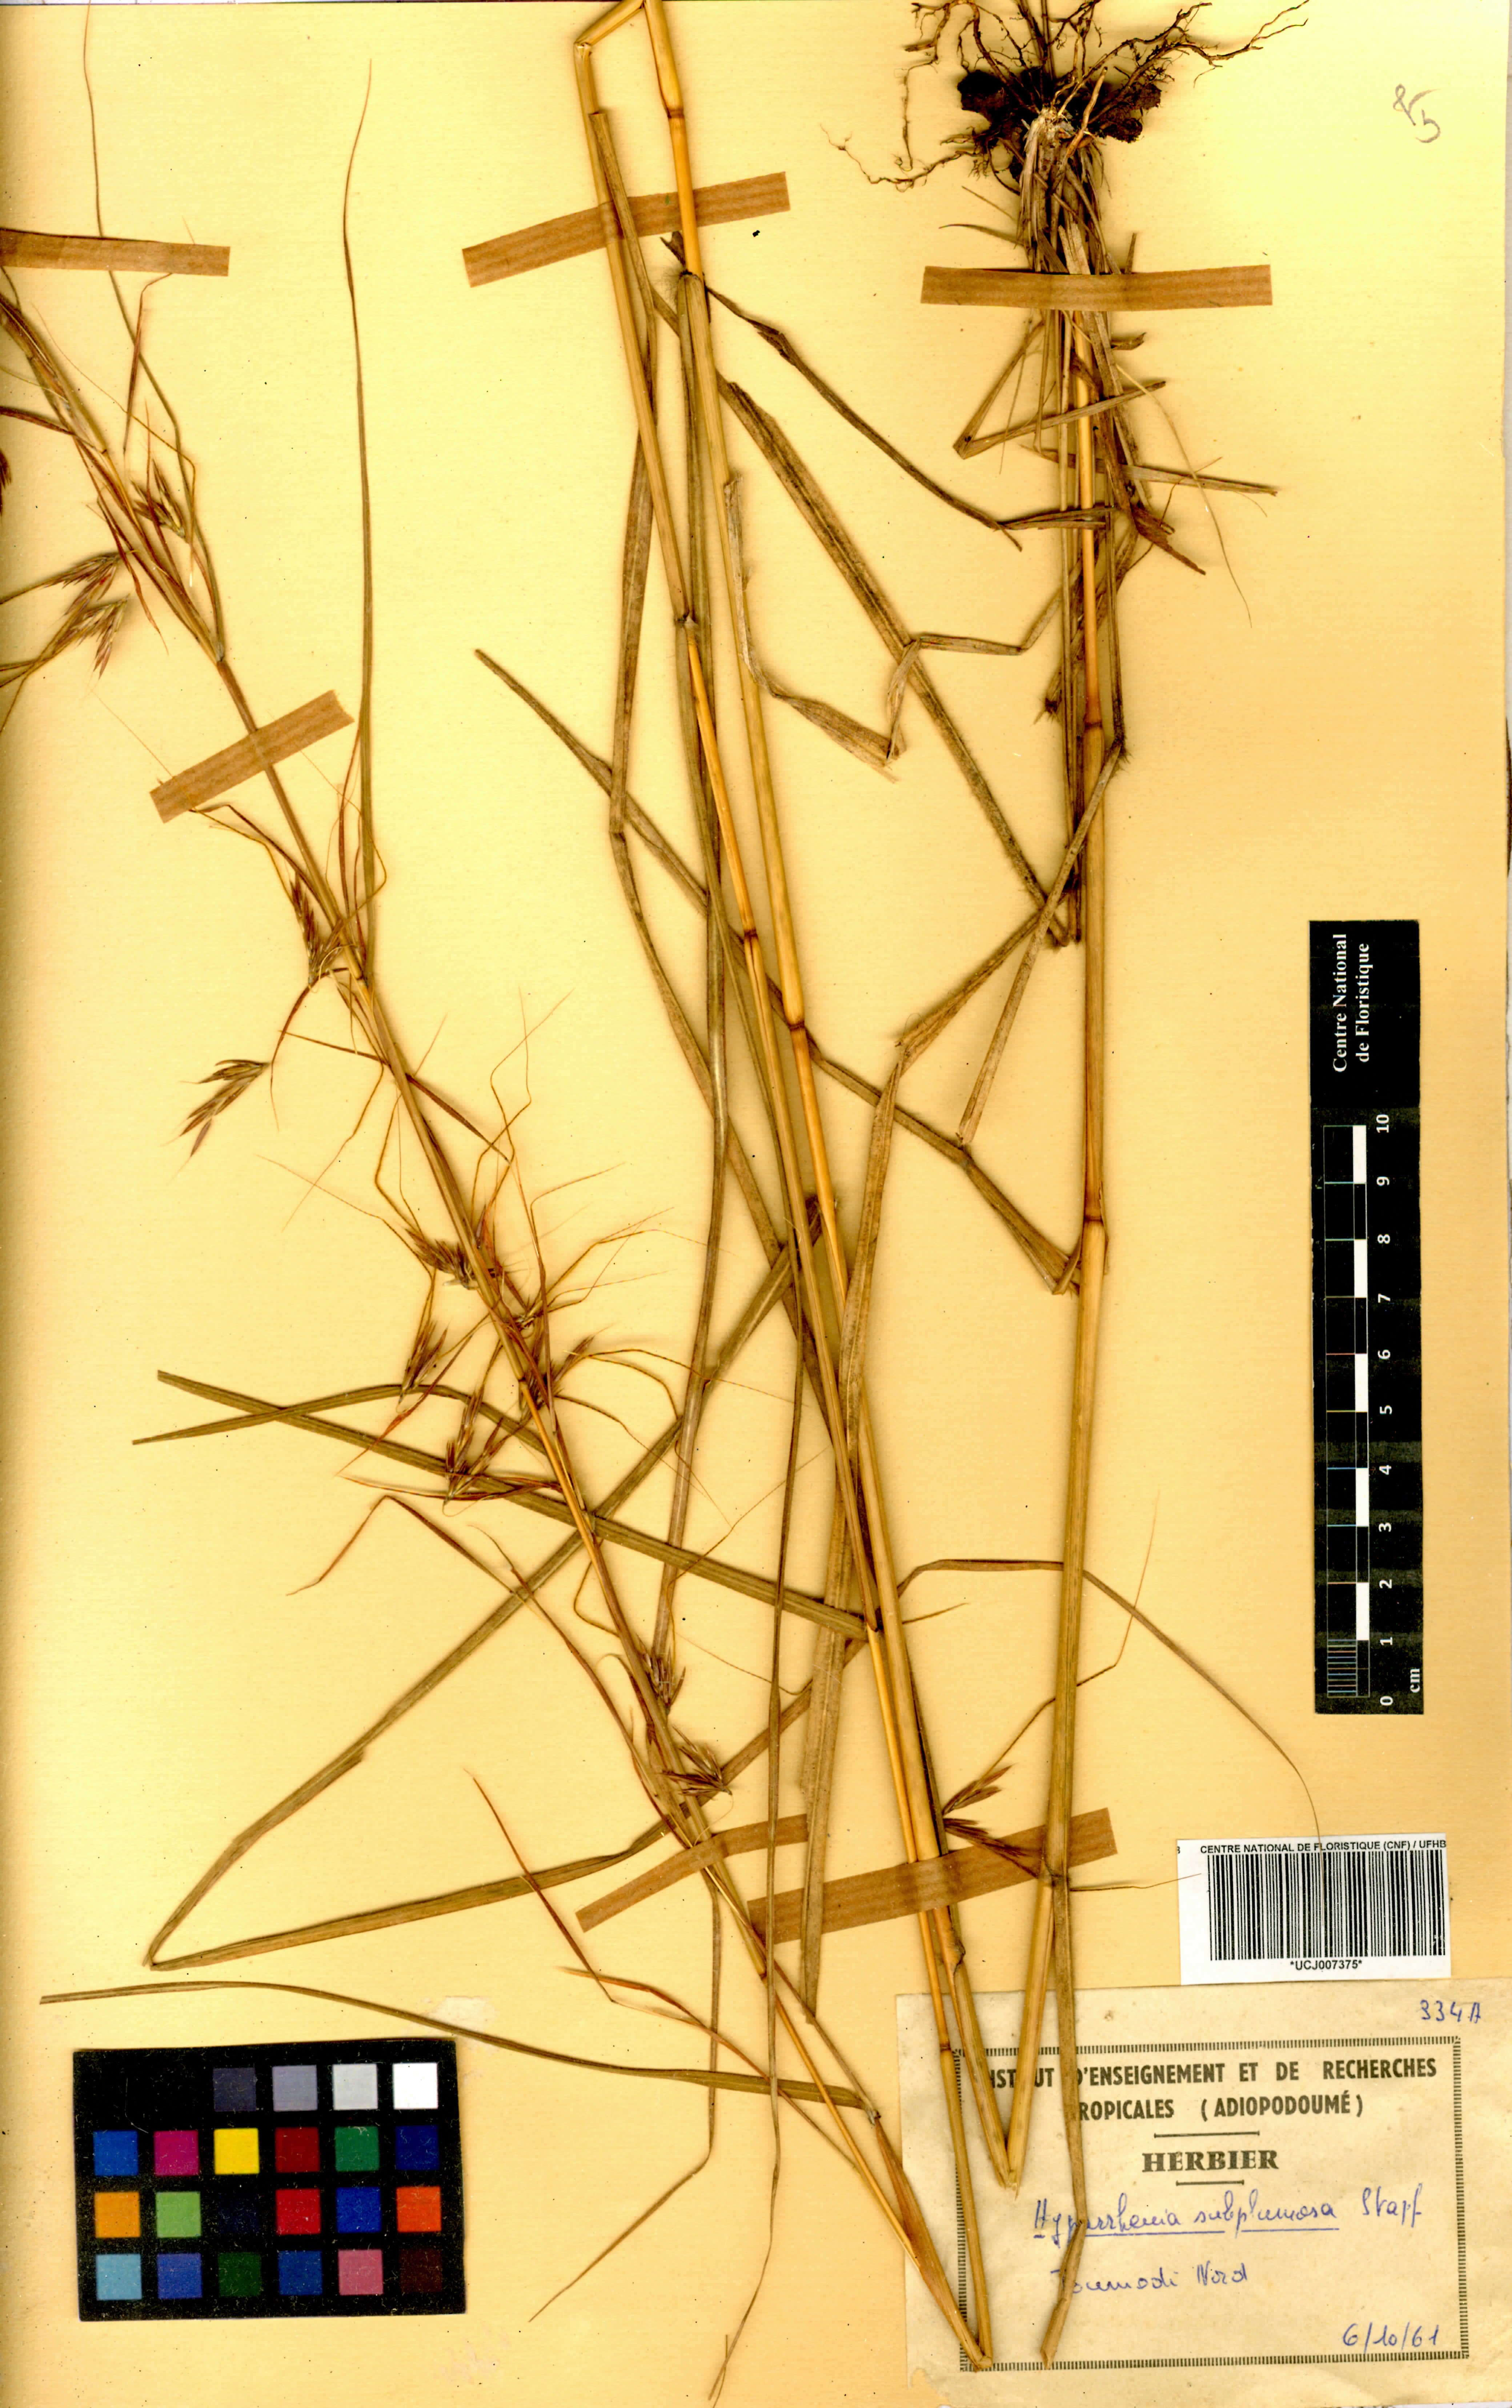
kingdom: Plantae
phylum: Tracheophyta
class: Liliopsida
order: Poales
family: Poaceae
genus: Hyparrhenia
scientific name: Hyparrhenia subplumosa
